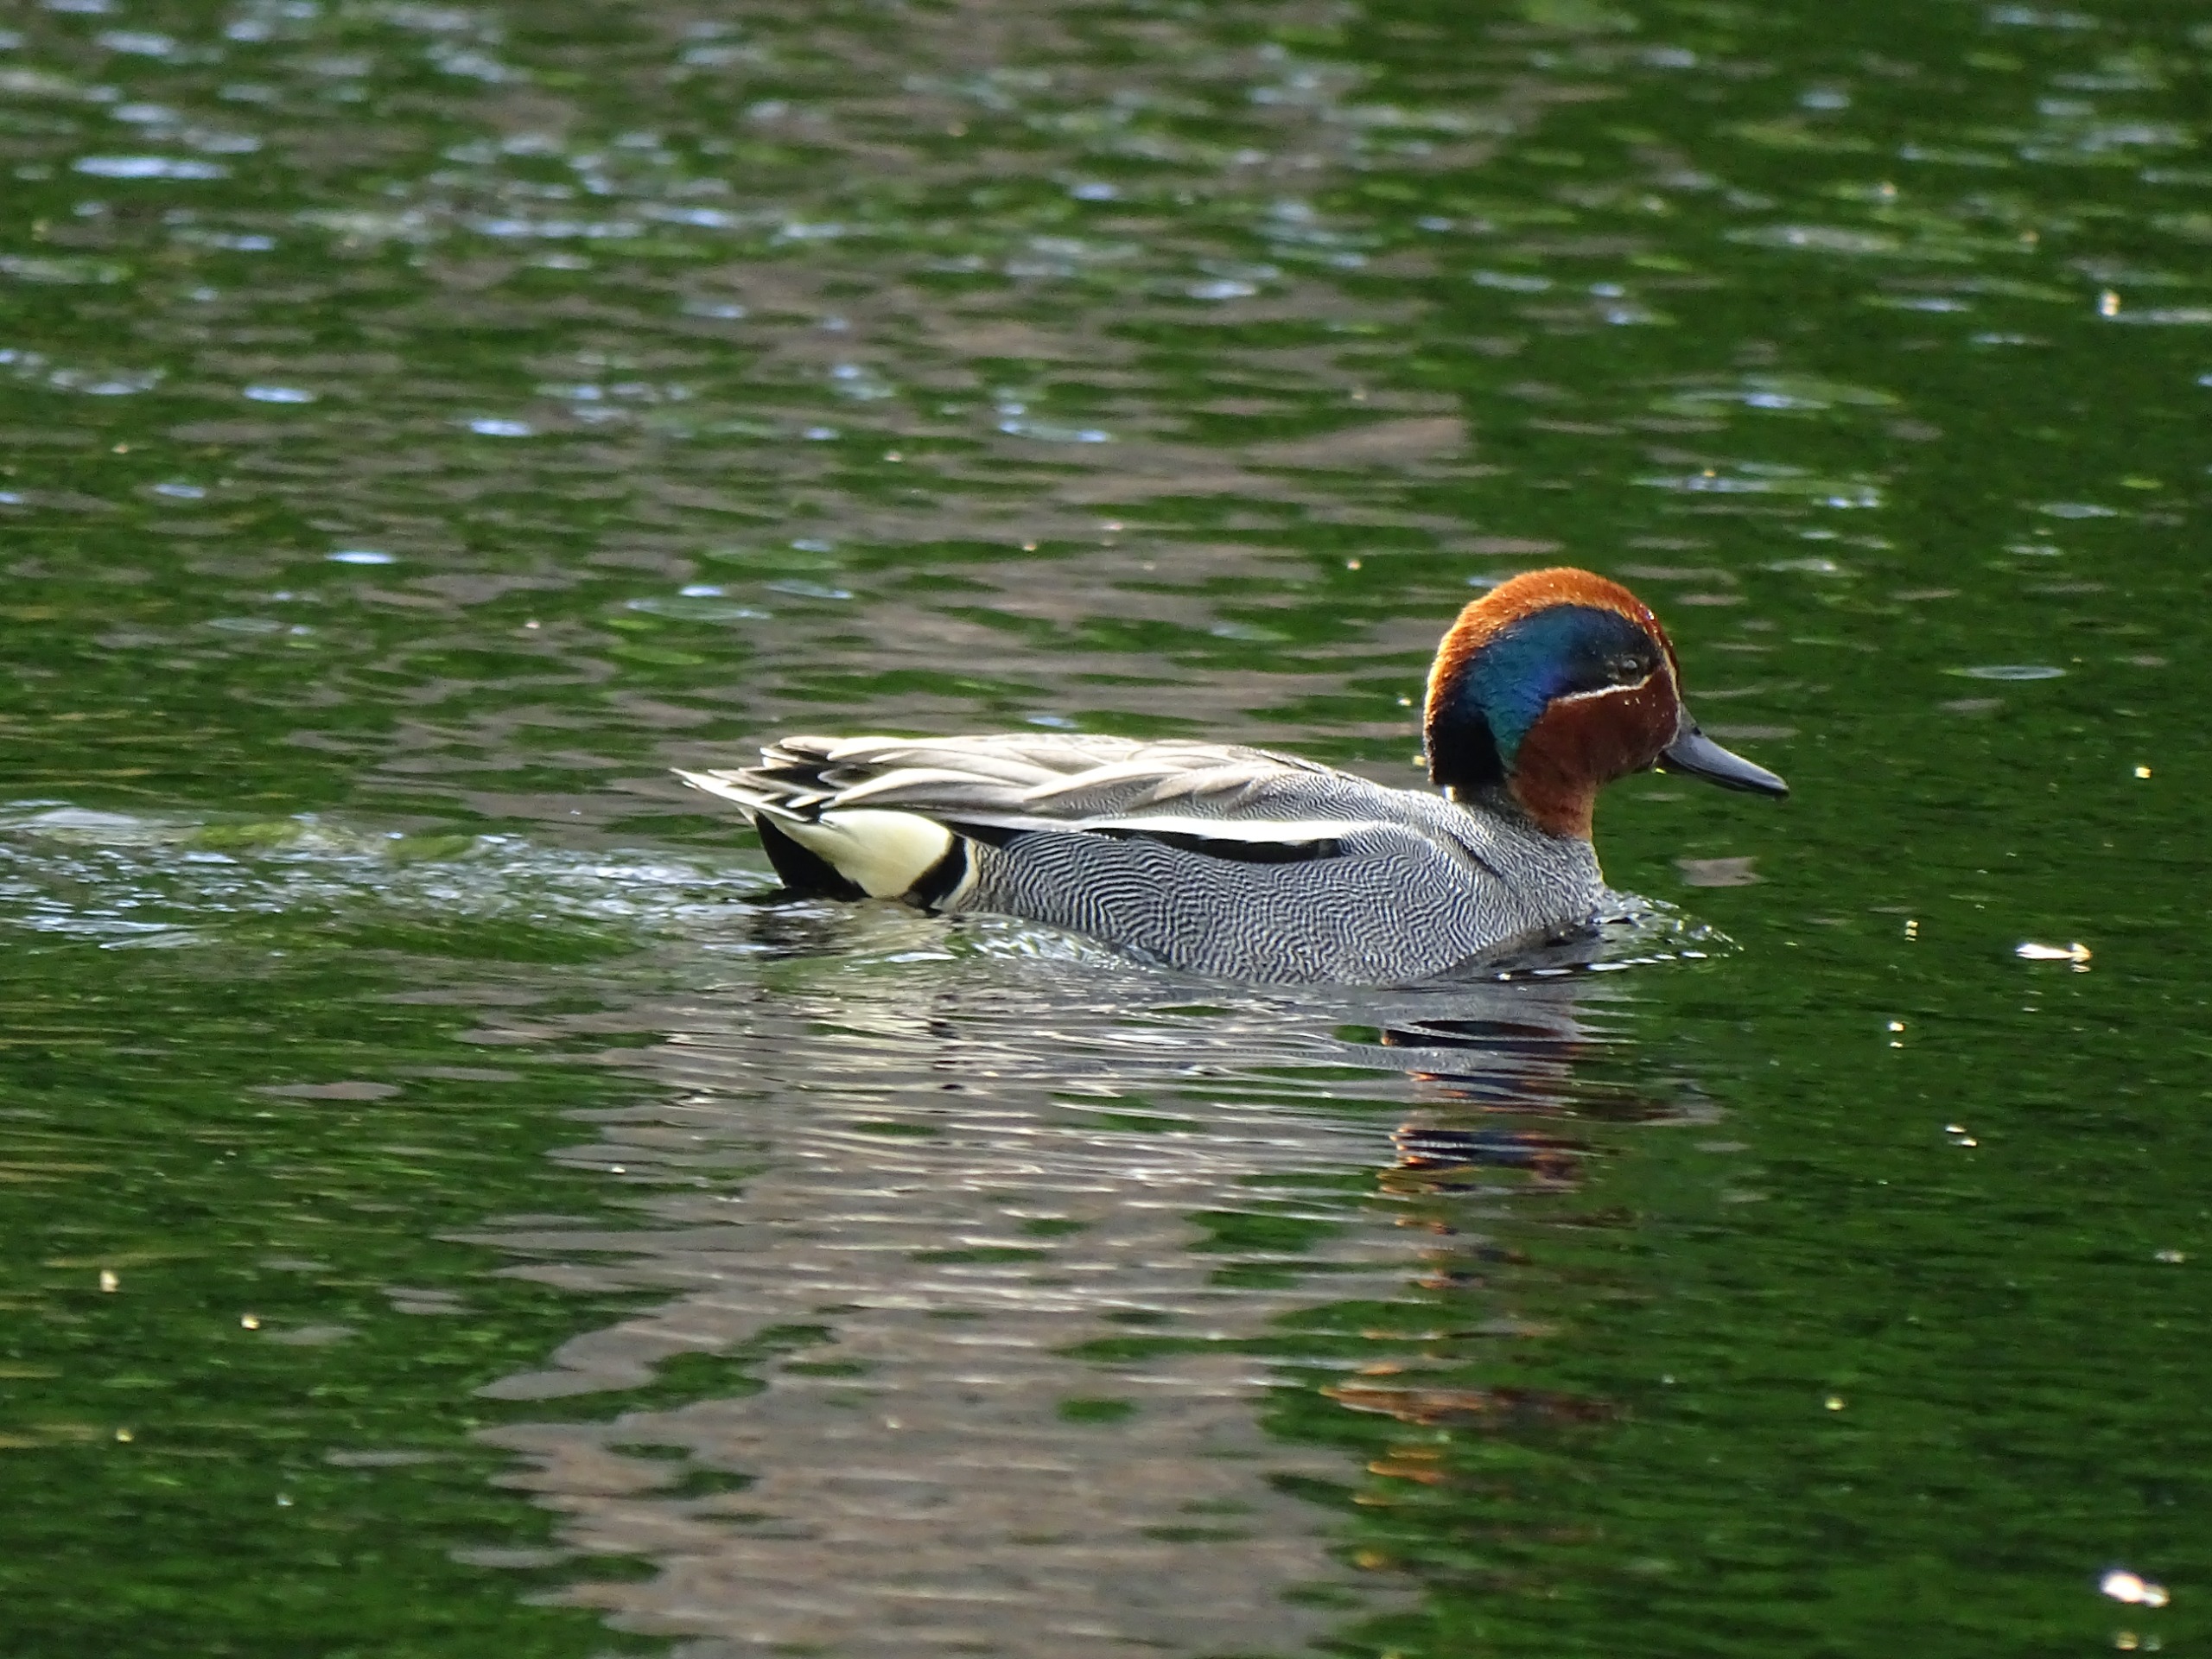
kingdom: Animalia
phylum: Chordata
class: Aves
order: Anseriformes
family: Anatidae
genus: Anas
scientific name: Anas crecca
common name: Krikand
